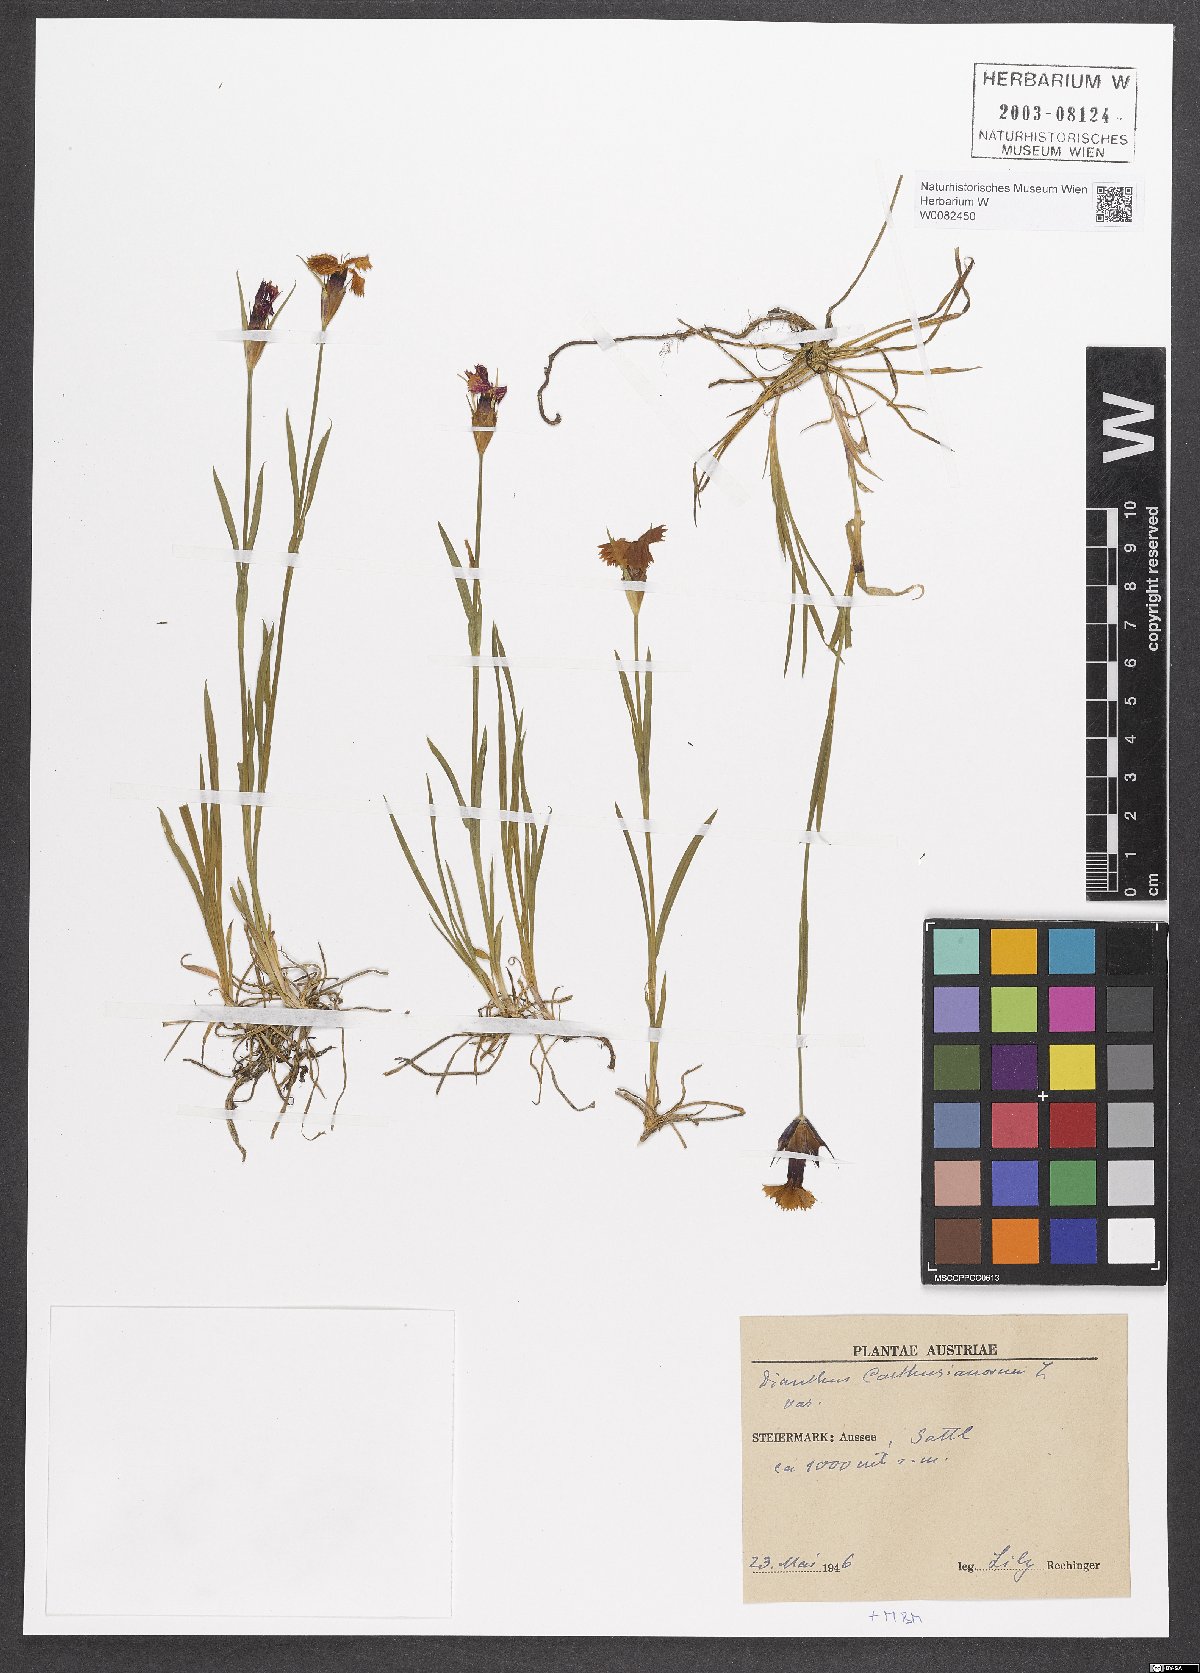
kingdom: Plantae
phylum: Tracheophyta
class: Magnoliopsida
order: Caryophyllales
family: Caryophyllaceae
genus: Dianthus
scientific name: Dianthus carthusianorum
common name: Carthusian pink
